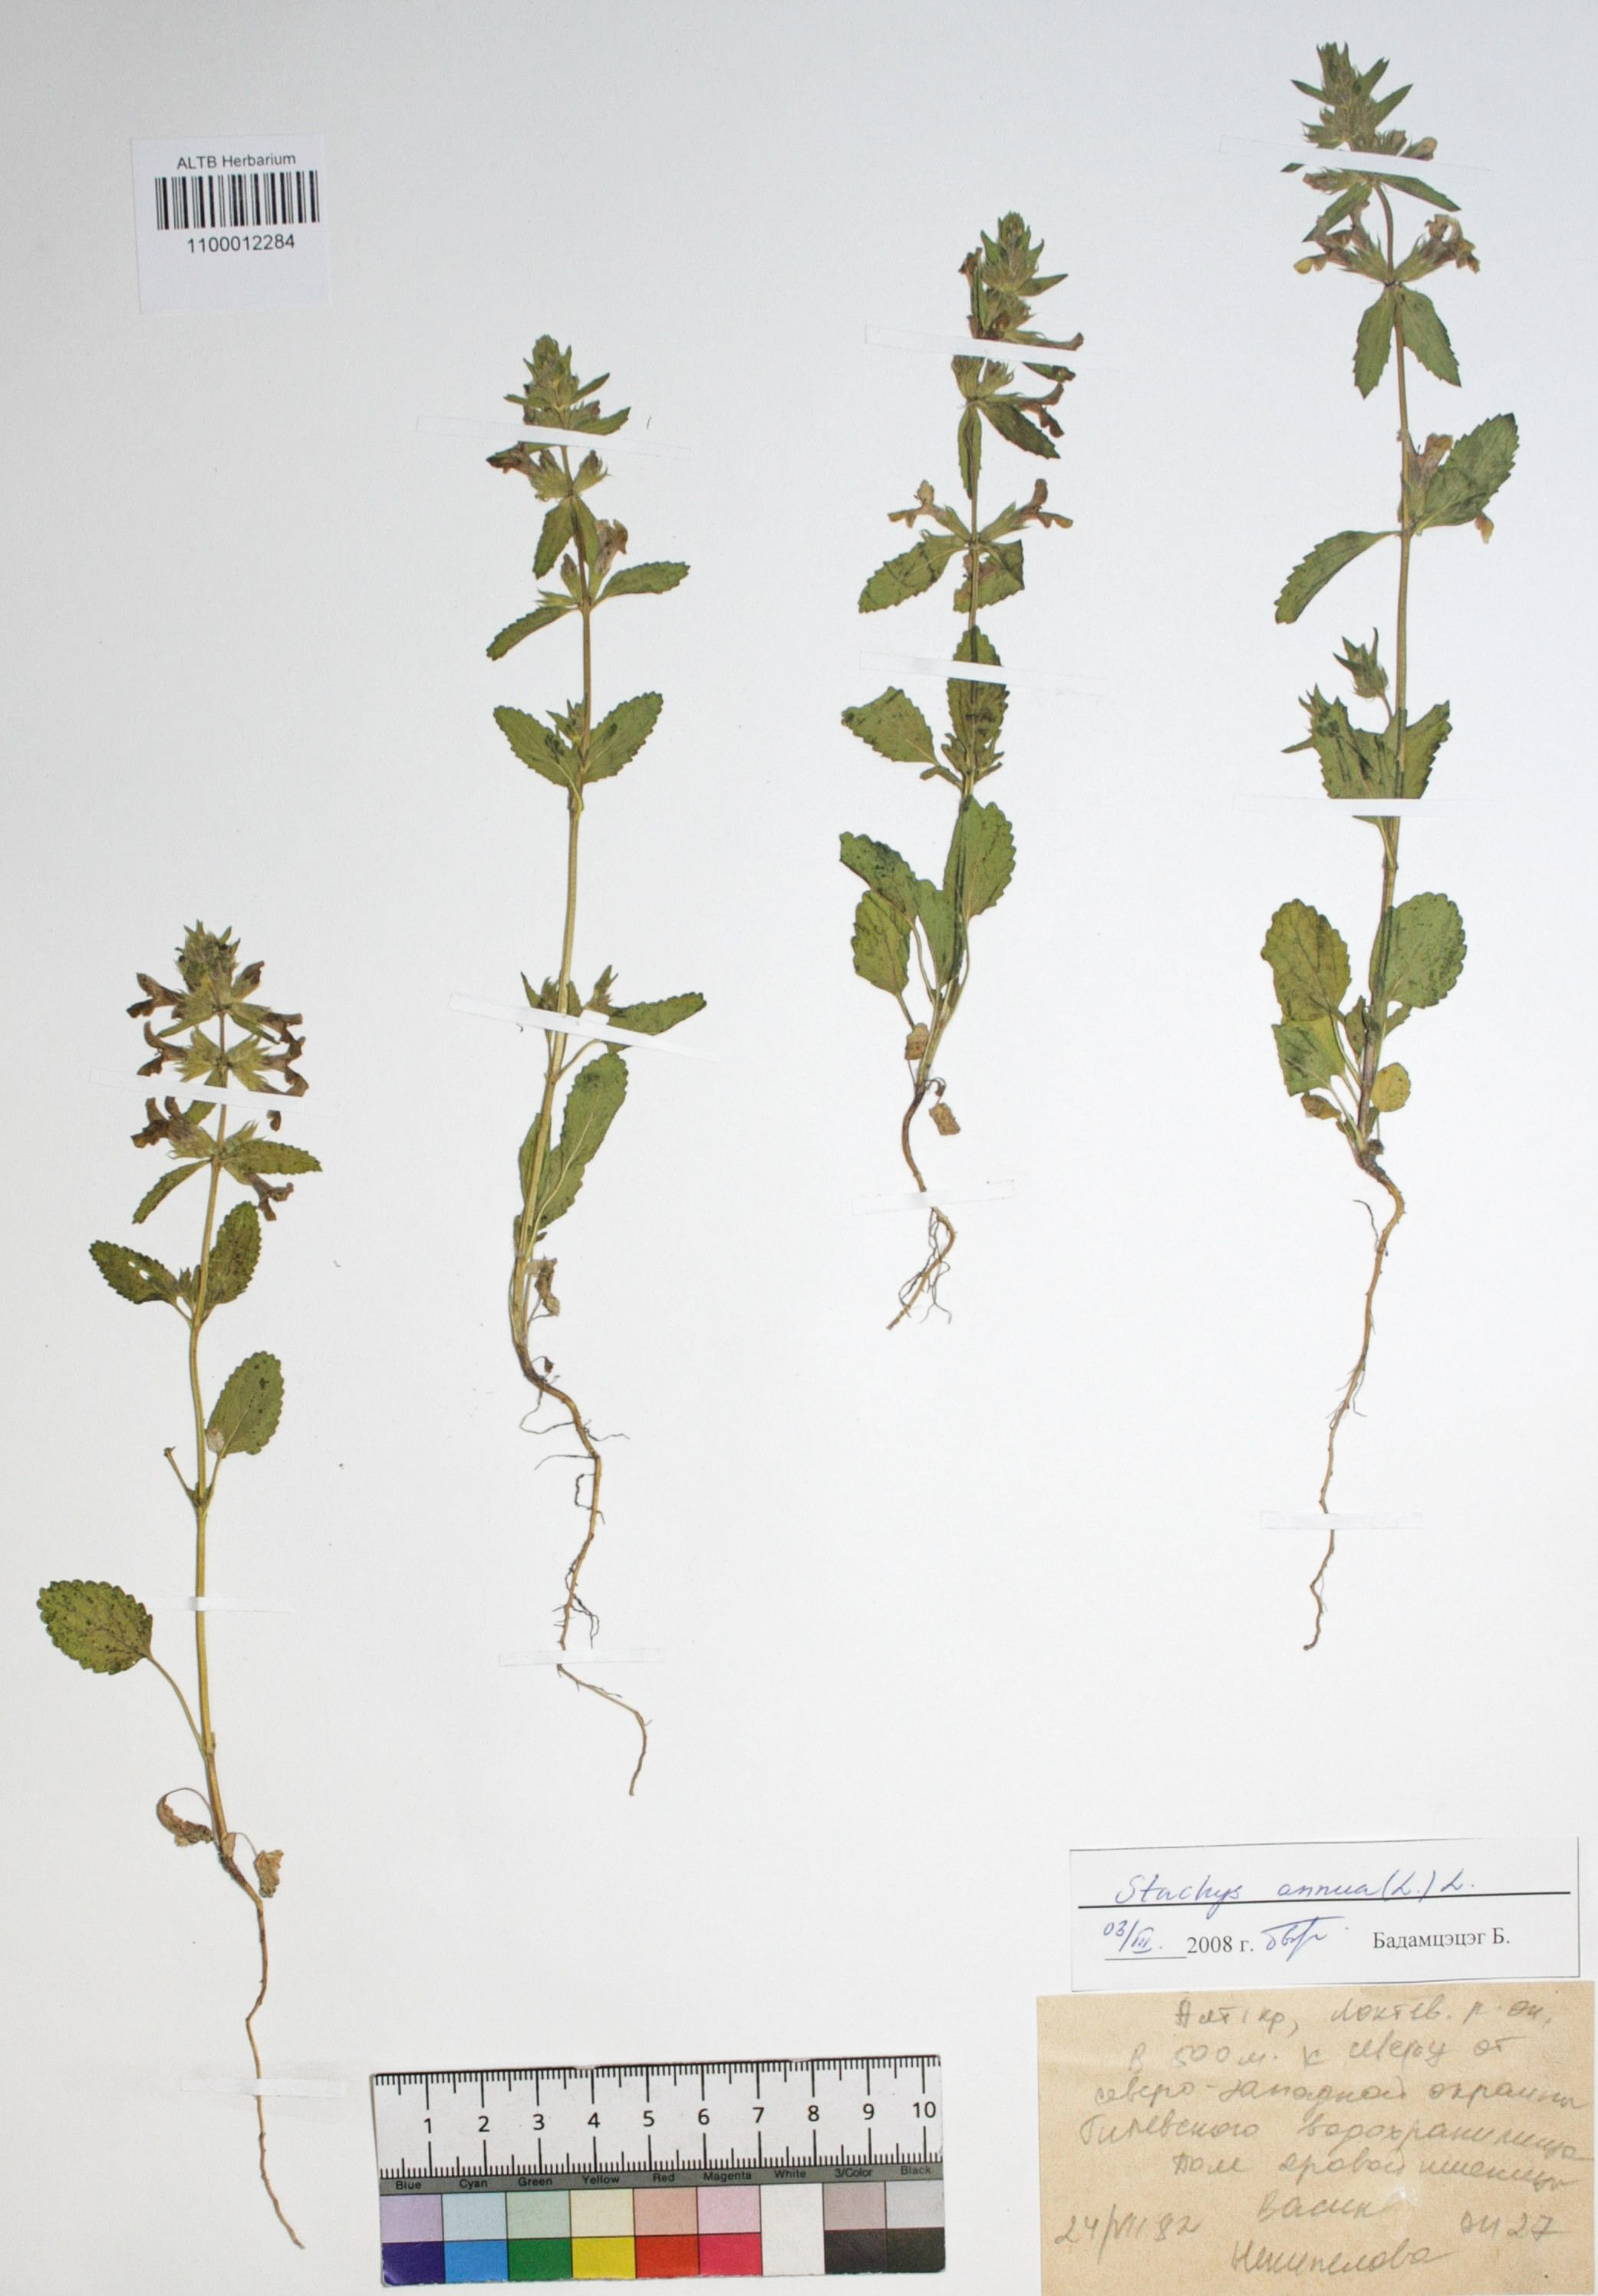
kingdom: Plantae
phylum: Tracheophyta
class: Magnoliopsida
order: Lamiales
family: Lamiaceae
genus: Stachys
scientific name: Stachys annua
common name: Annual yellow-woundwort
